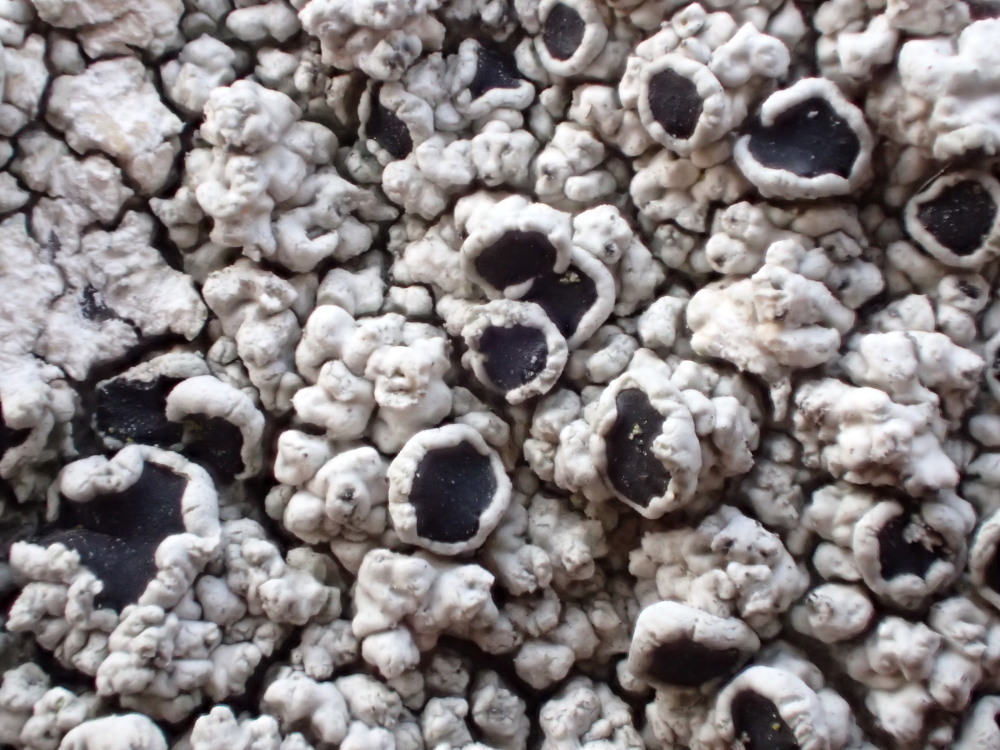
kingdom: Fungi
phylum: Ascomycota
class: Lecanoromycetes
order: Lecanorales
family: Tephromelataceae
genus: Tephromela
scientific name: Tephromela atra
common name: sortfrugtet kantskivelav
